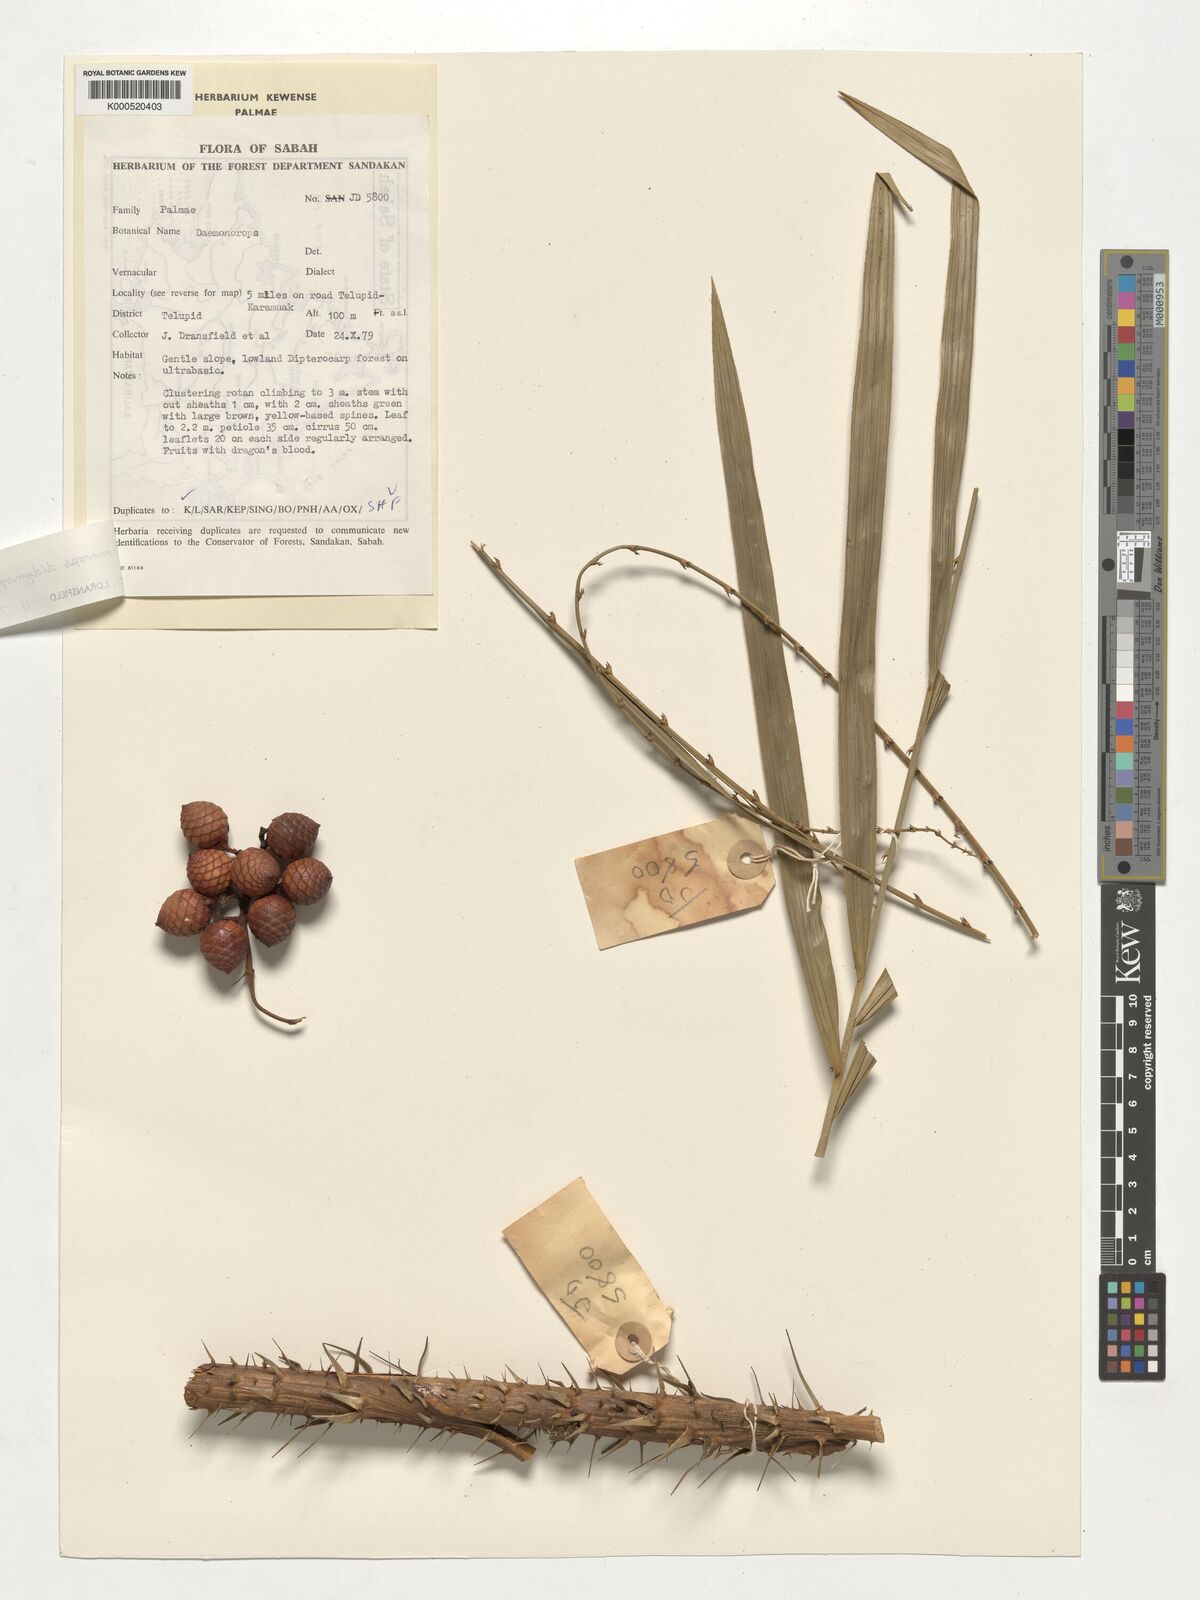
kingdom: Plantae
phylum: Tracheophyta
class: Liliopsida
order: Arecales
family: Arecaceae
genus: Calamus
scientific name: Calamus gracilipes
